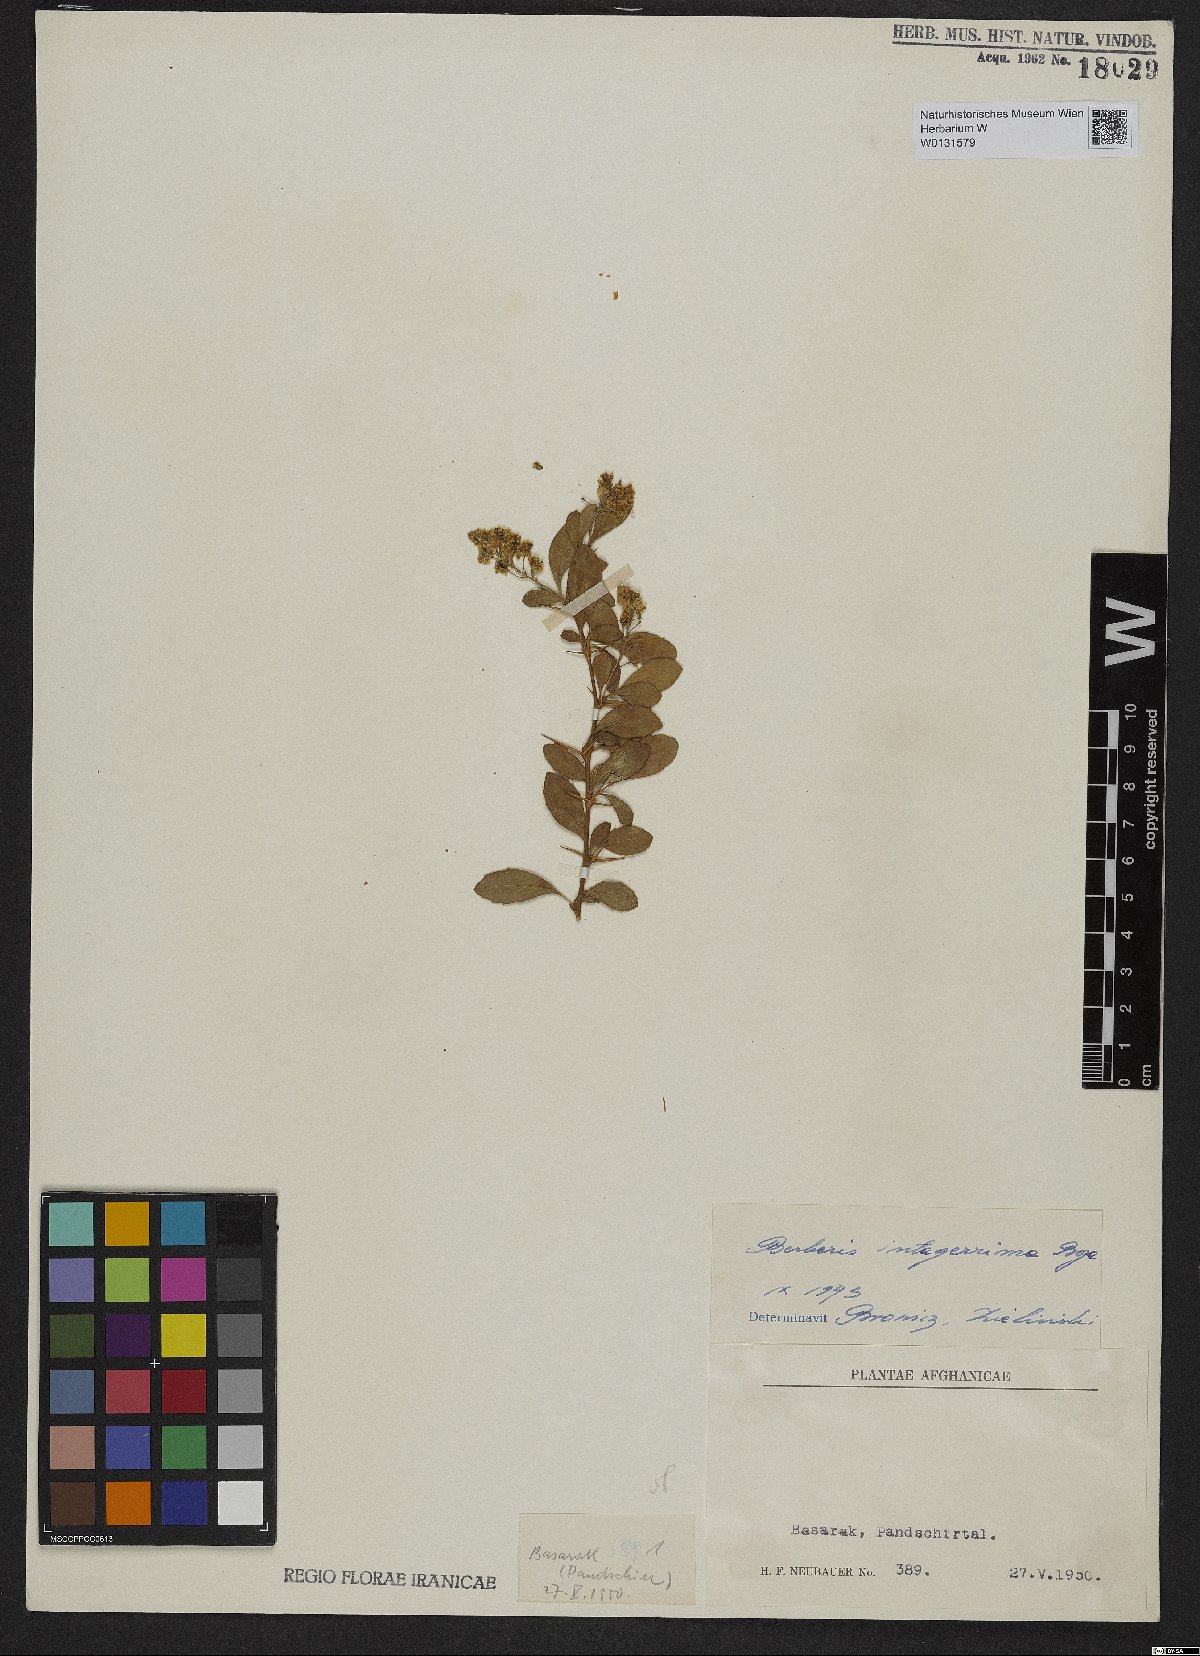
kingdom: Plantae
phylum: Tracheophyta
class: Magnoliopsida
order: Ranunculales
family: Berberidaceae
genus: Berberis
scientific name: Berberis integerrima
